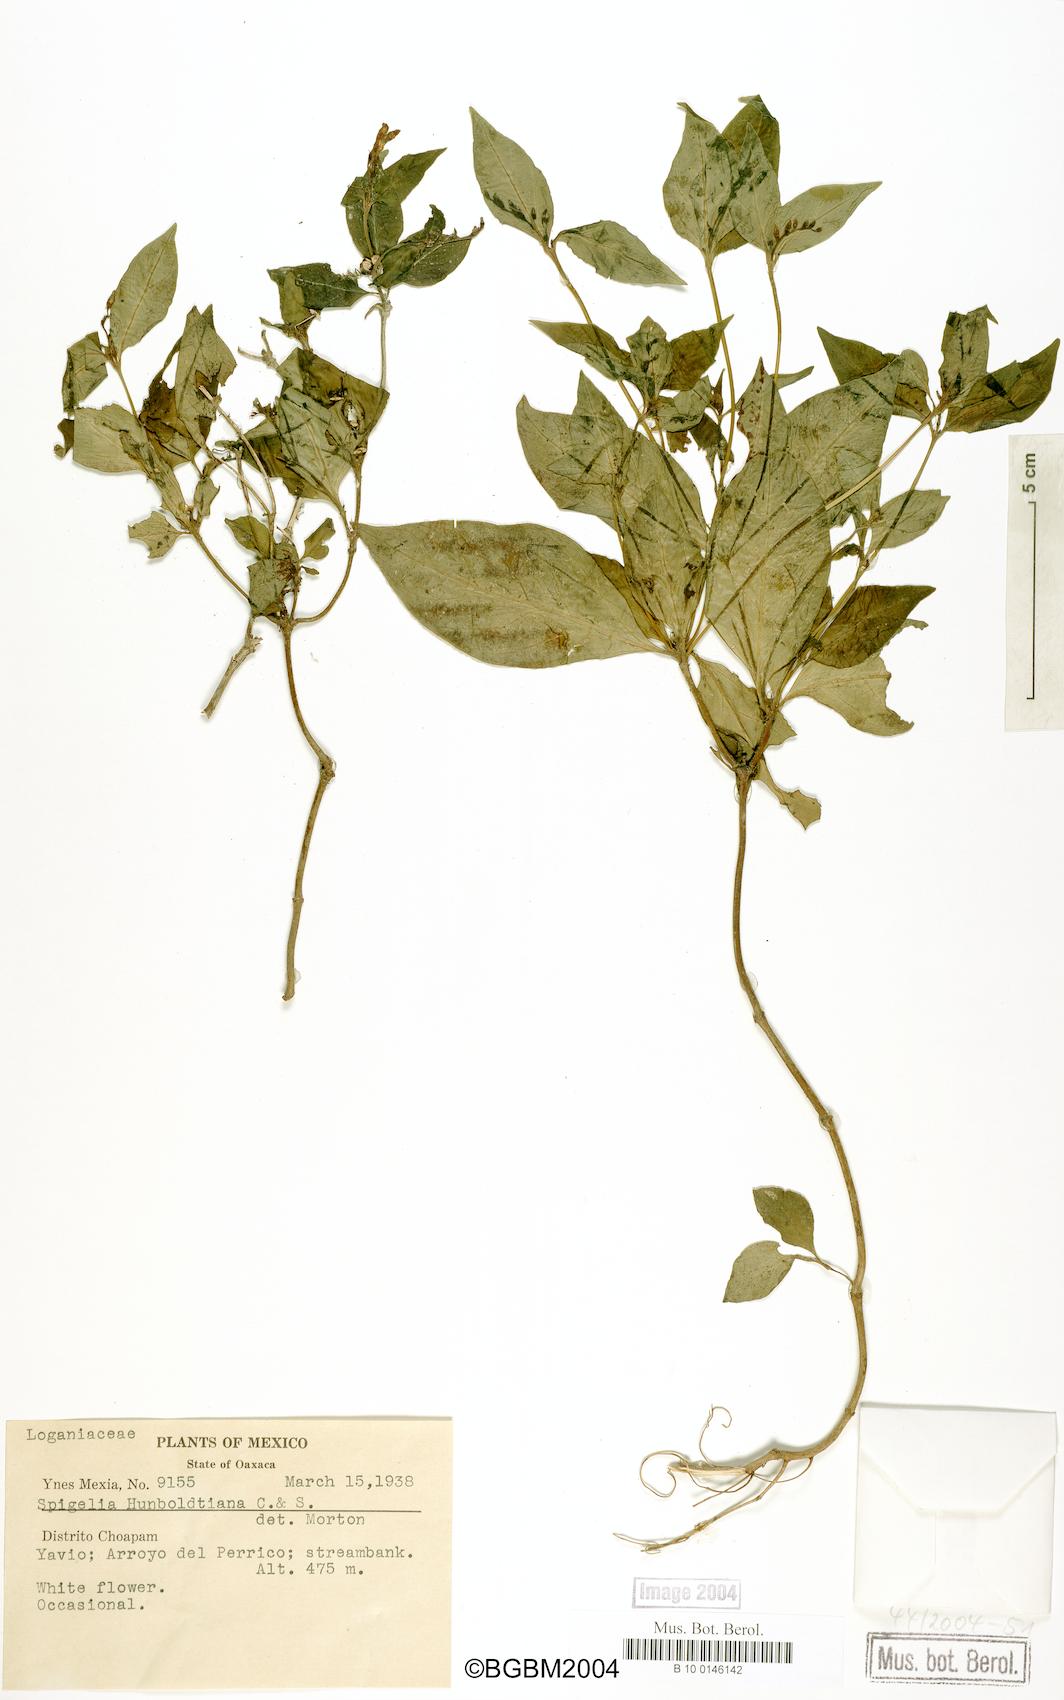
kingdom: Plantae
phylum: Tracheophyta
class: Magnoliopsida
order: Gentianales
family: Loganiaceae
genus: Spigelia
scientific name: Spigelia humboldtiana
